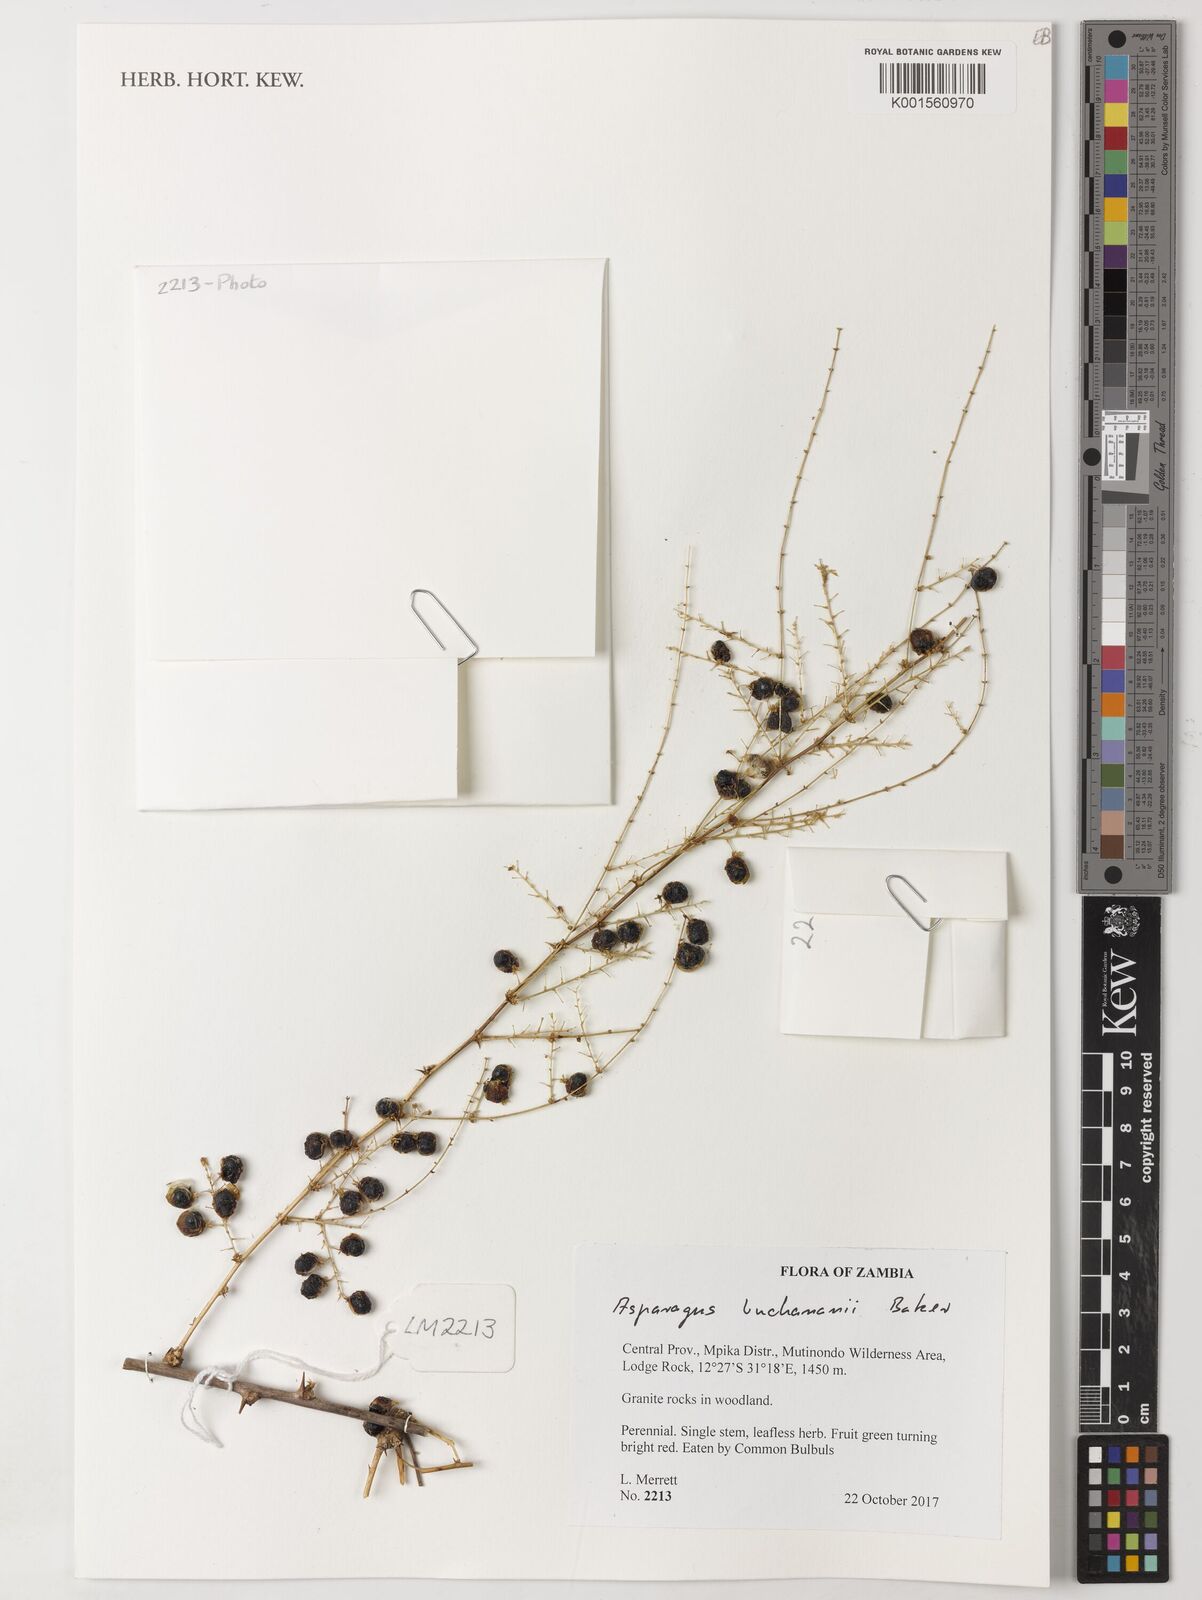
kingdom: Plantae
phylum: Tracheophyta
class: Liliopsida
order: Asparagales
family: Asparagaceae
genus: Asparagus
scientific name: Asparagus buchananii
